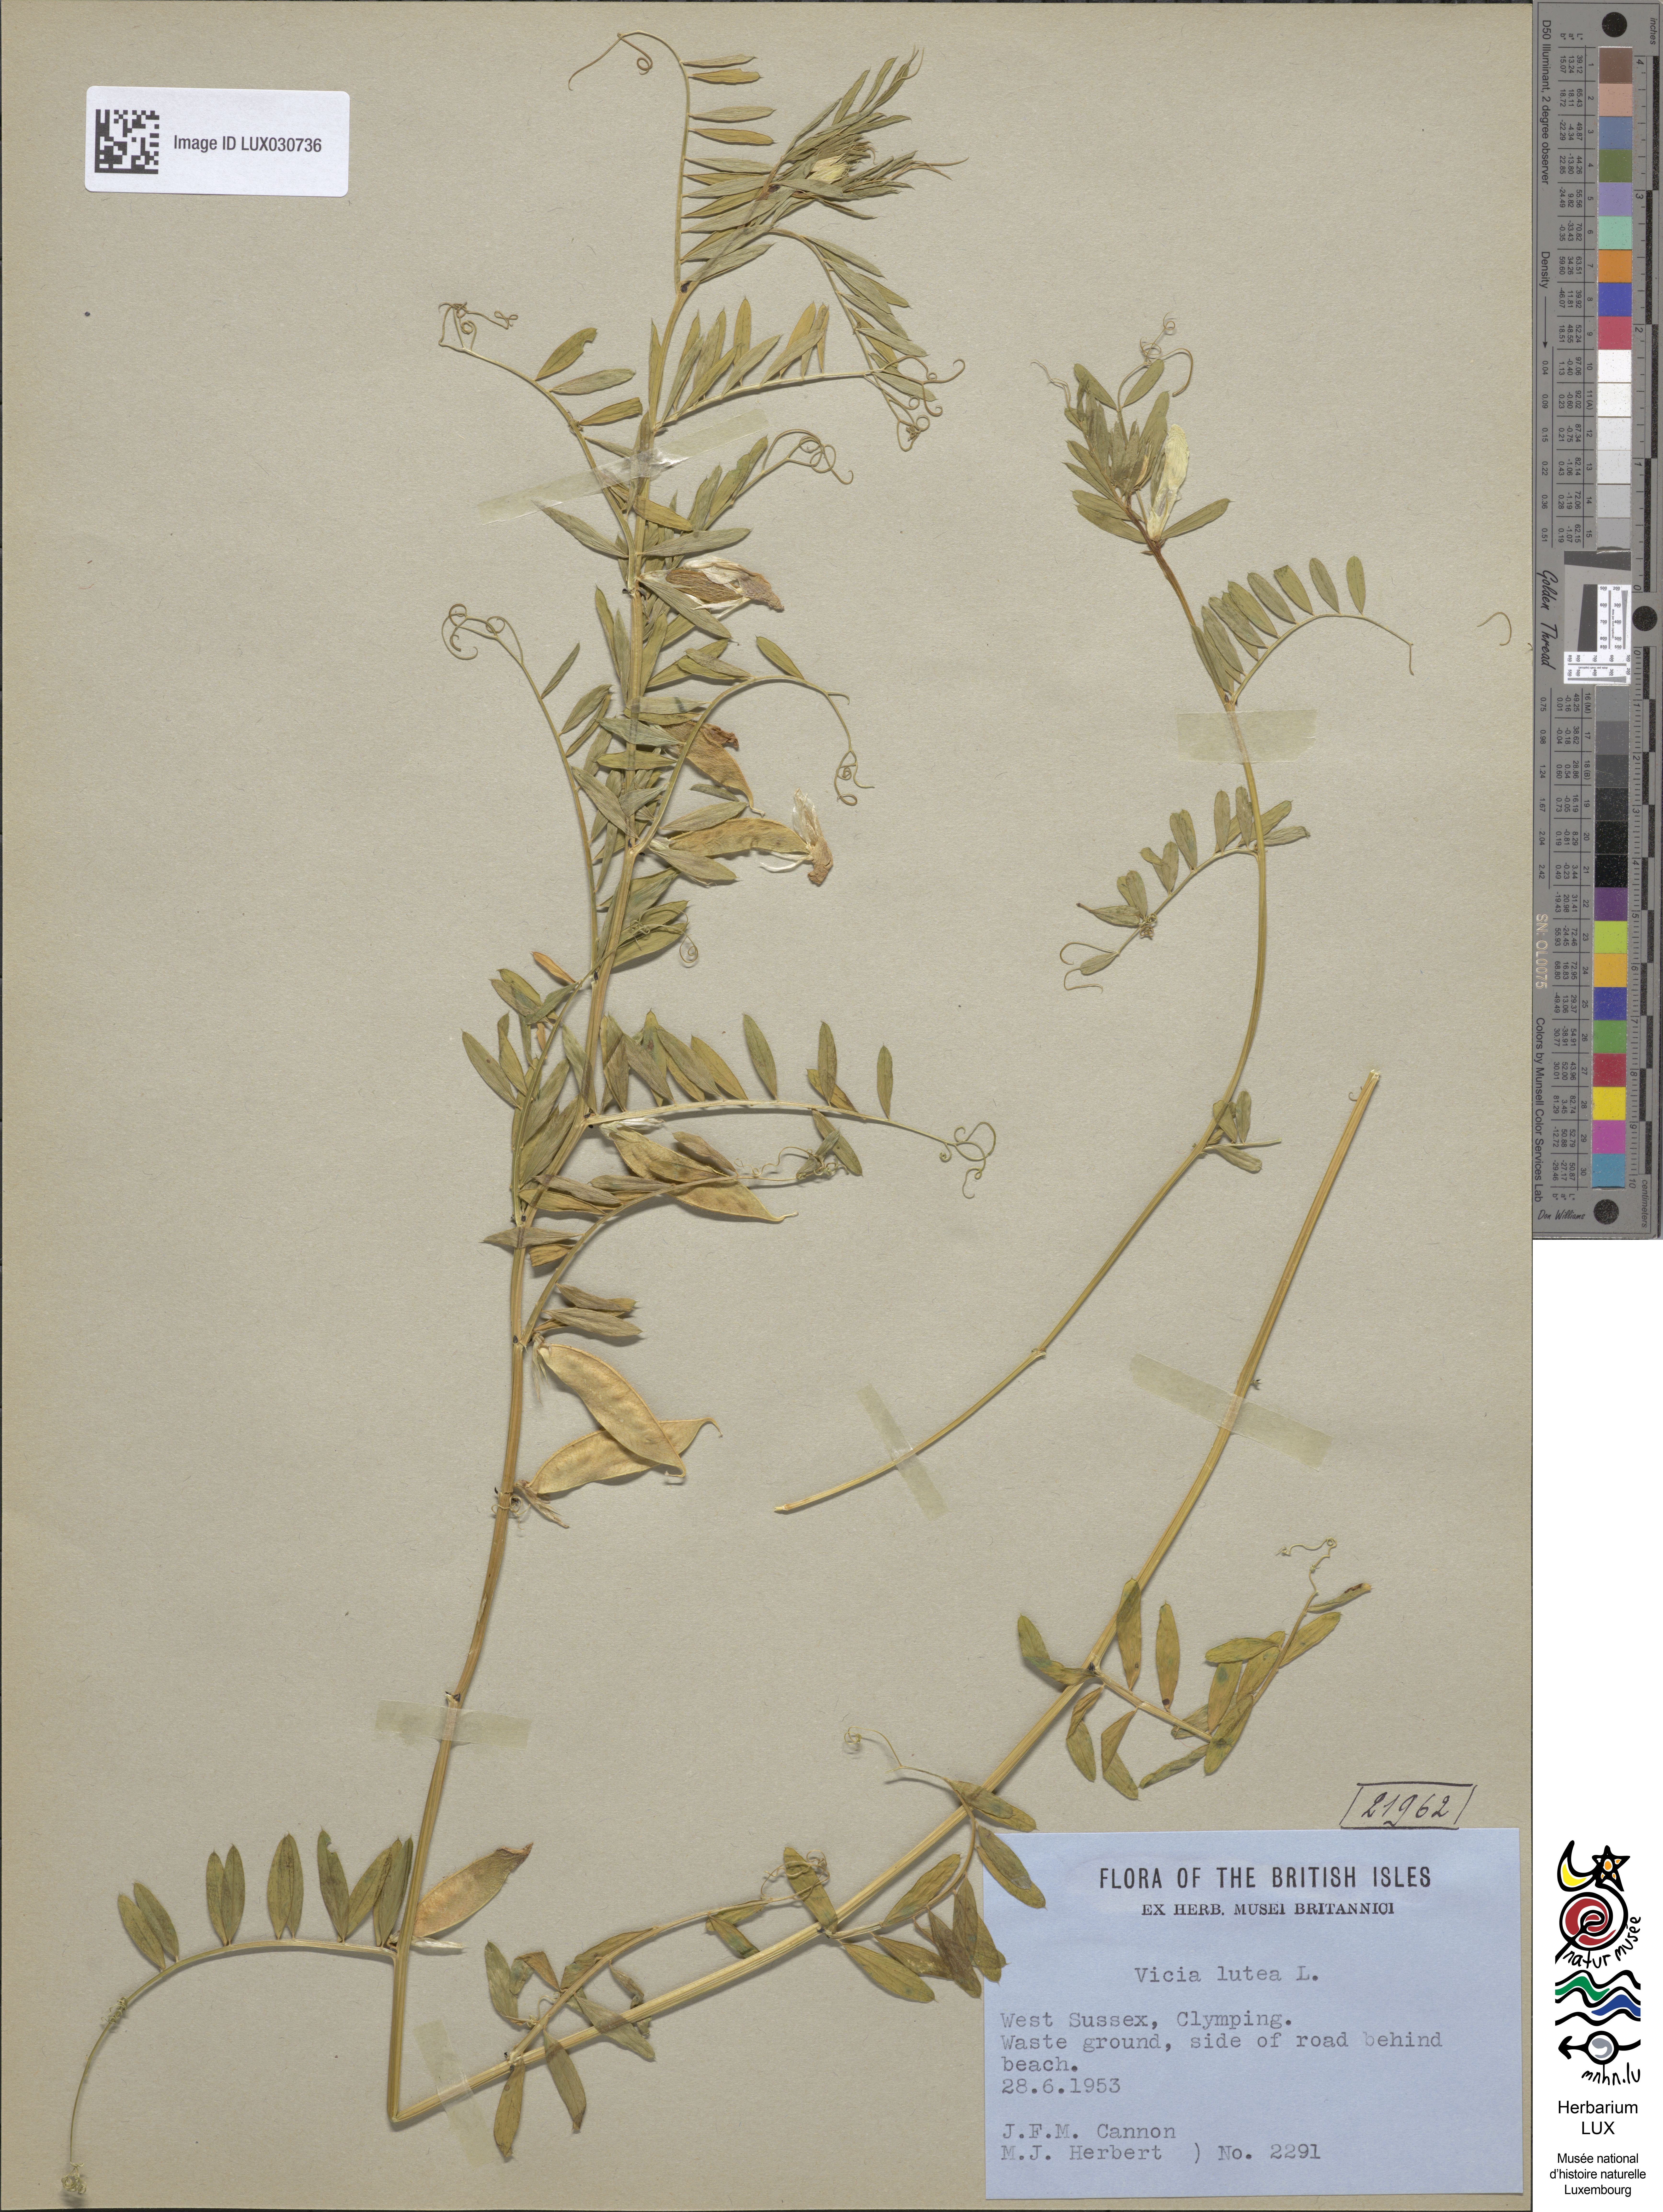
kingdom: Plantae
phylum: Tracheophyta
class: Magnoliopsida
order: Fabales
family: Fabaceae
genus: Vicia
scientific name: Vicia lutea
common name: Smooth yellow vetch
